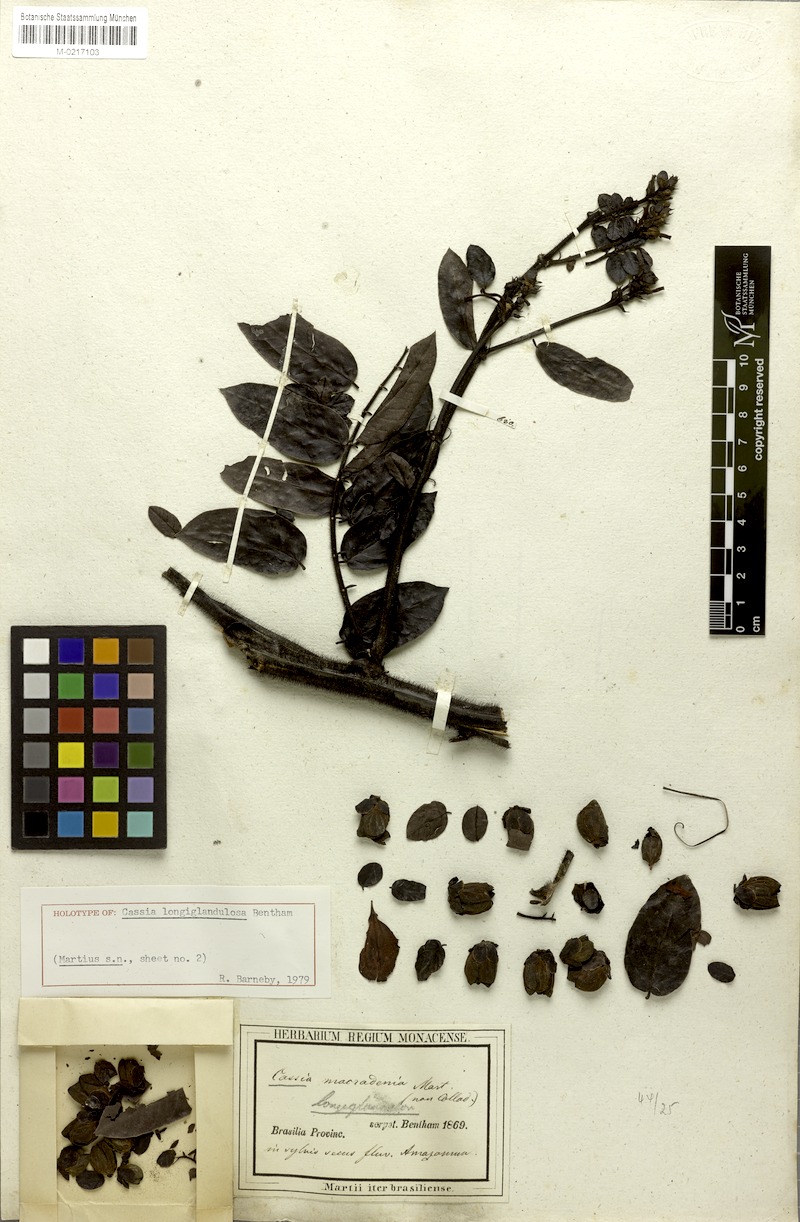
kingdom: Plantae
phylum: Tracheophyta
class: Magnoliopsida
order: Fabales
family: Fabaceae
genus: Senna
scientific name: Senna occidentalis
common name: Septicweed
